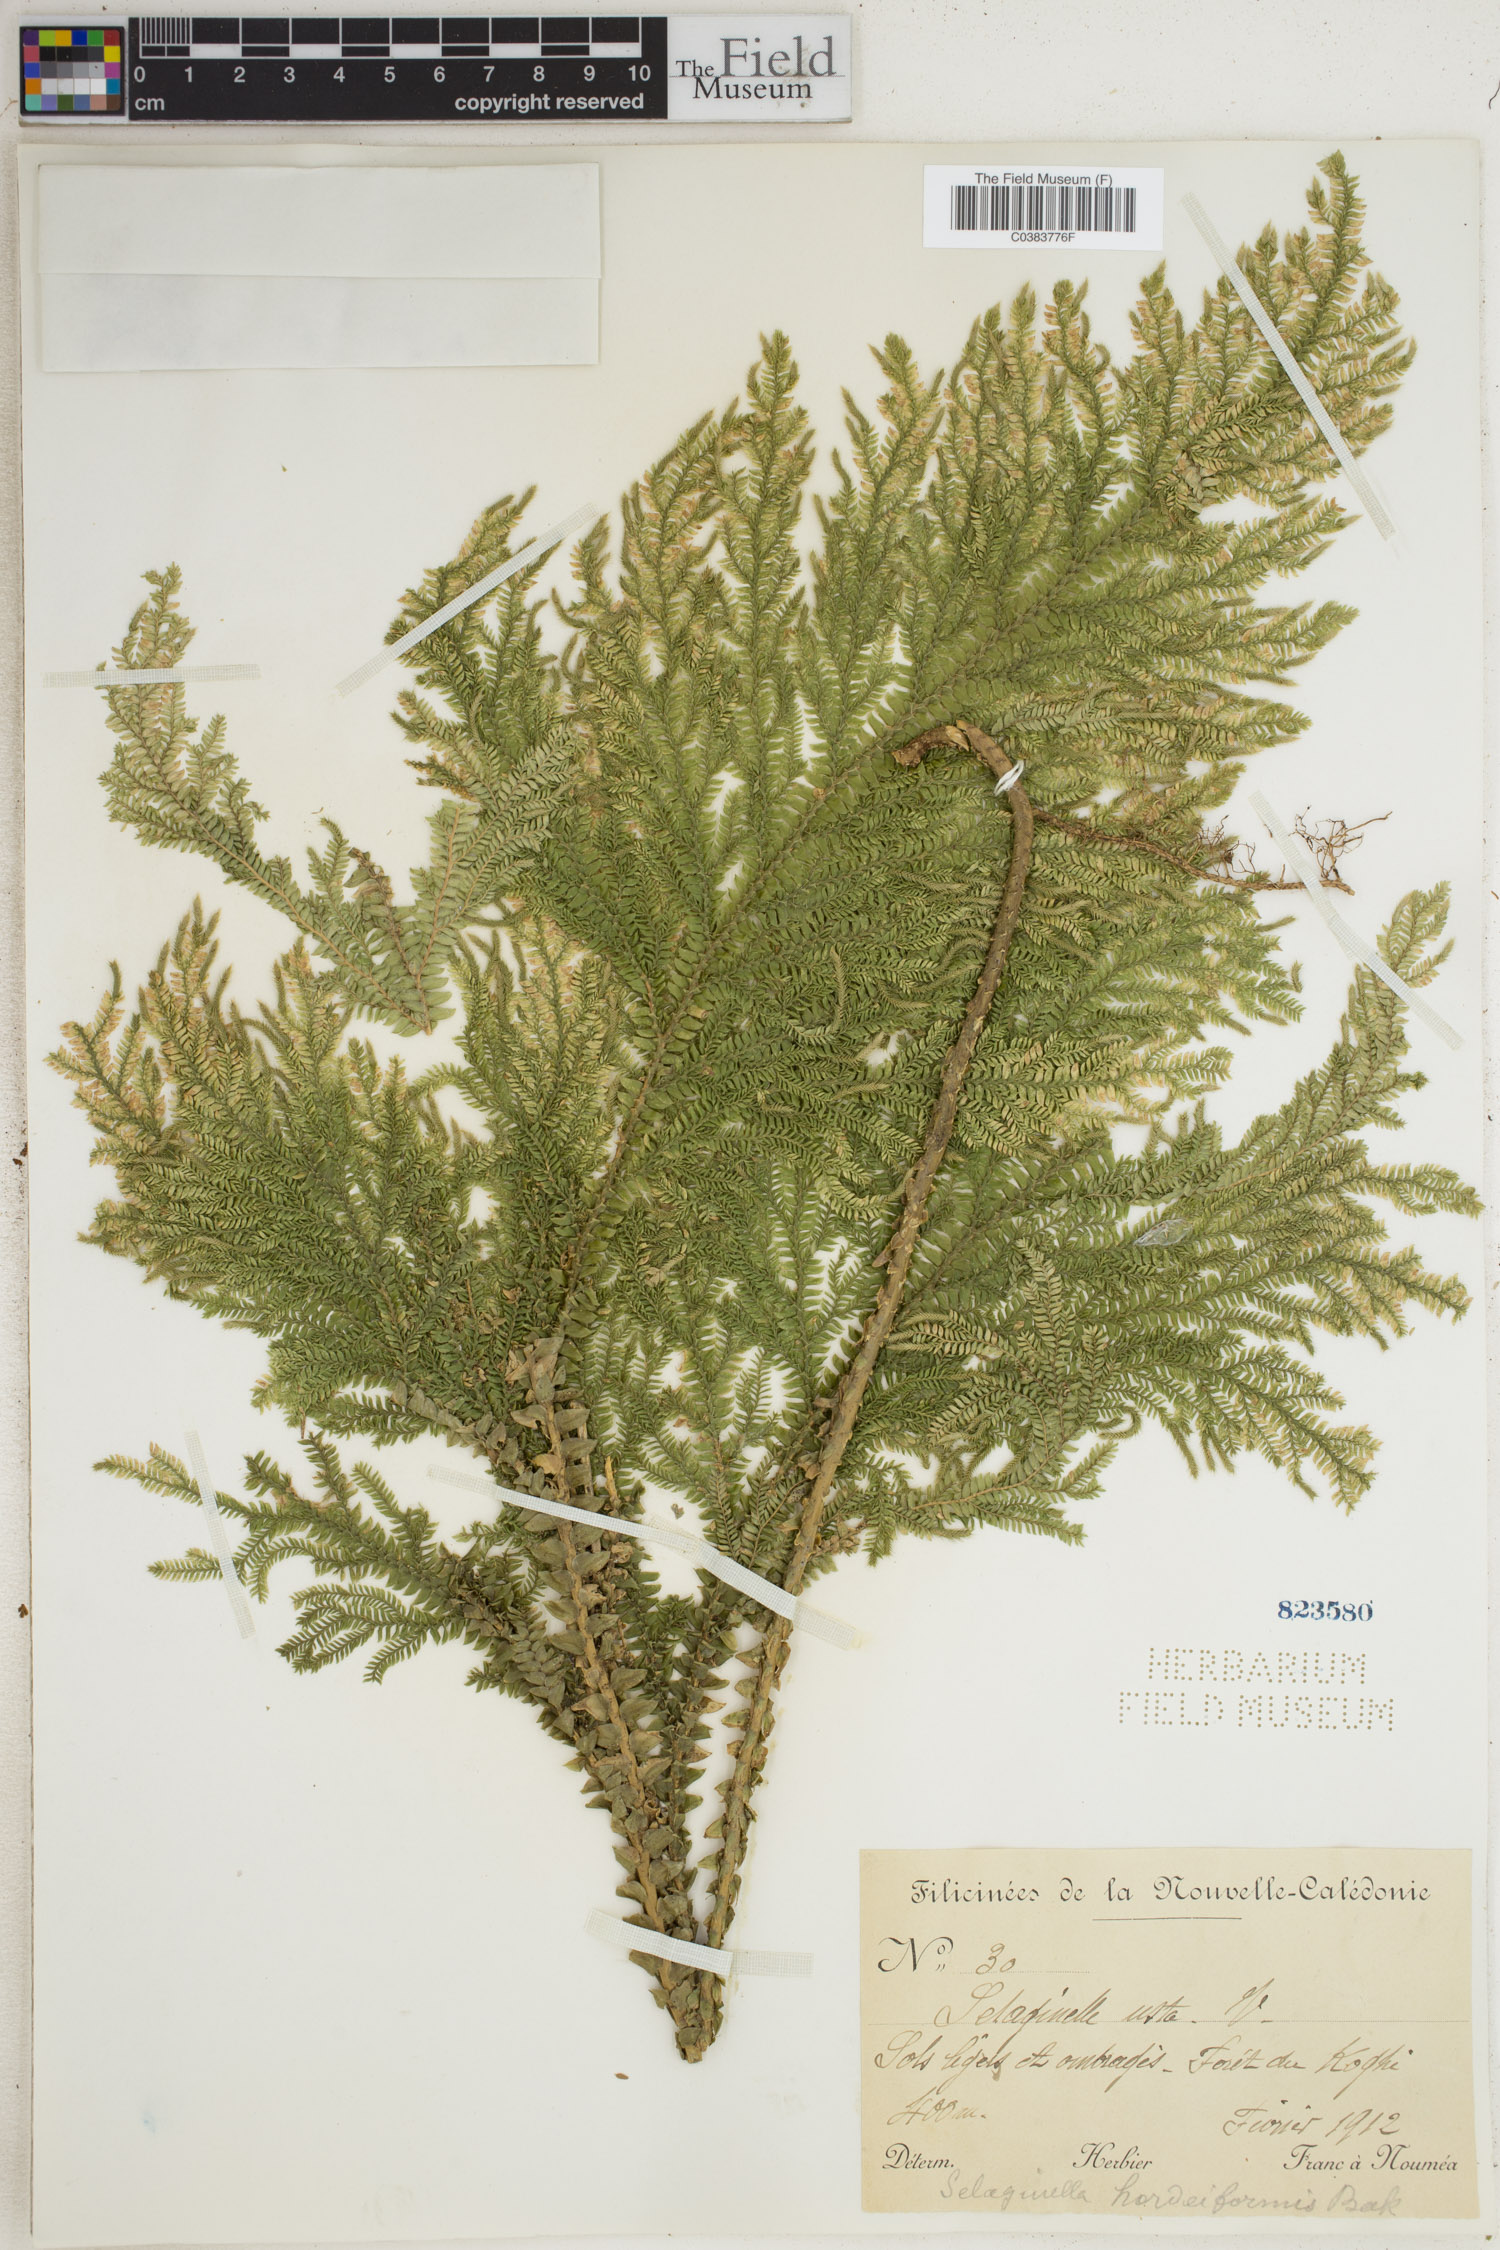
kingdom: Plantae
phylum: Tracheophyta
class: Lycopodiopsida
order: Selaginellales
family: Selaginellaceae
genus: Selaginella
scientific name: Selaginella hordeiformis
